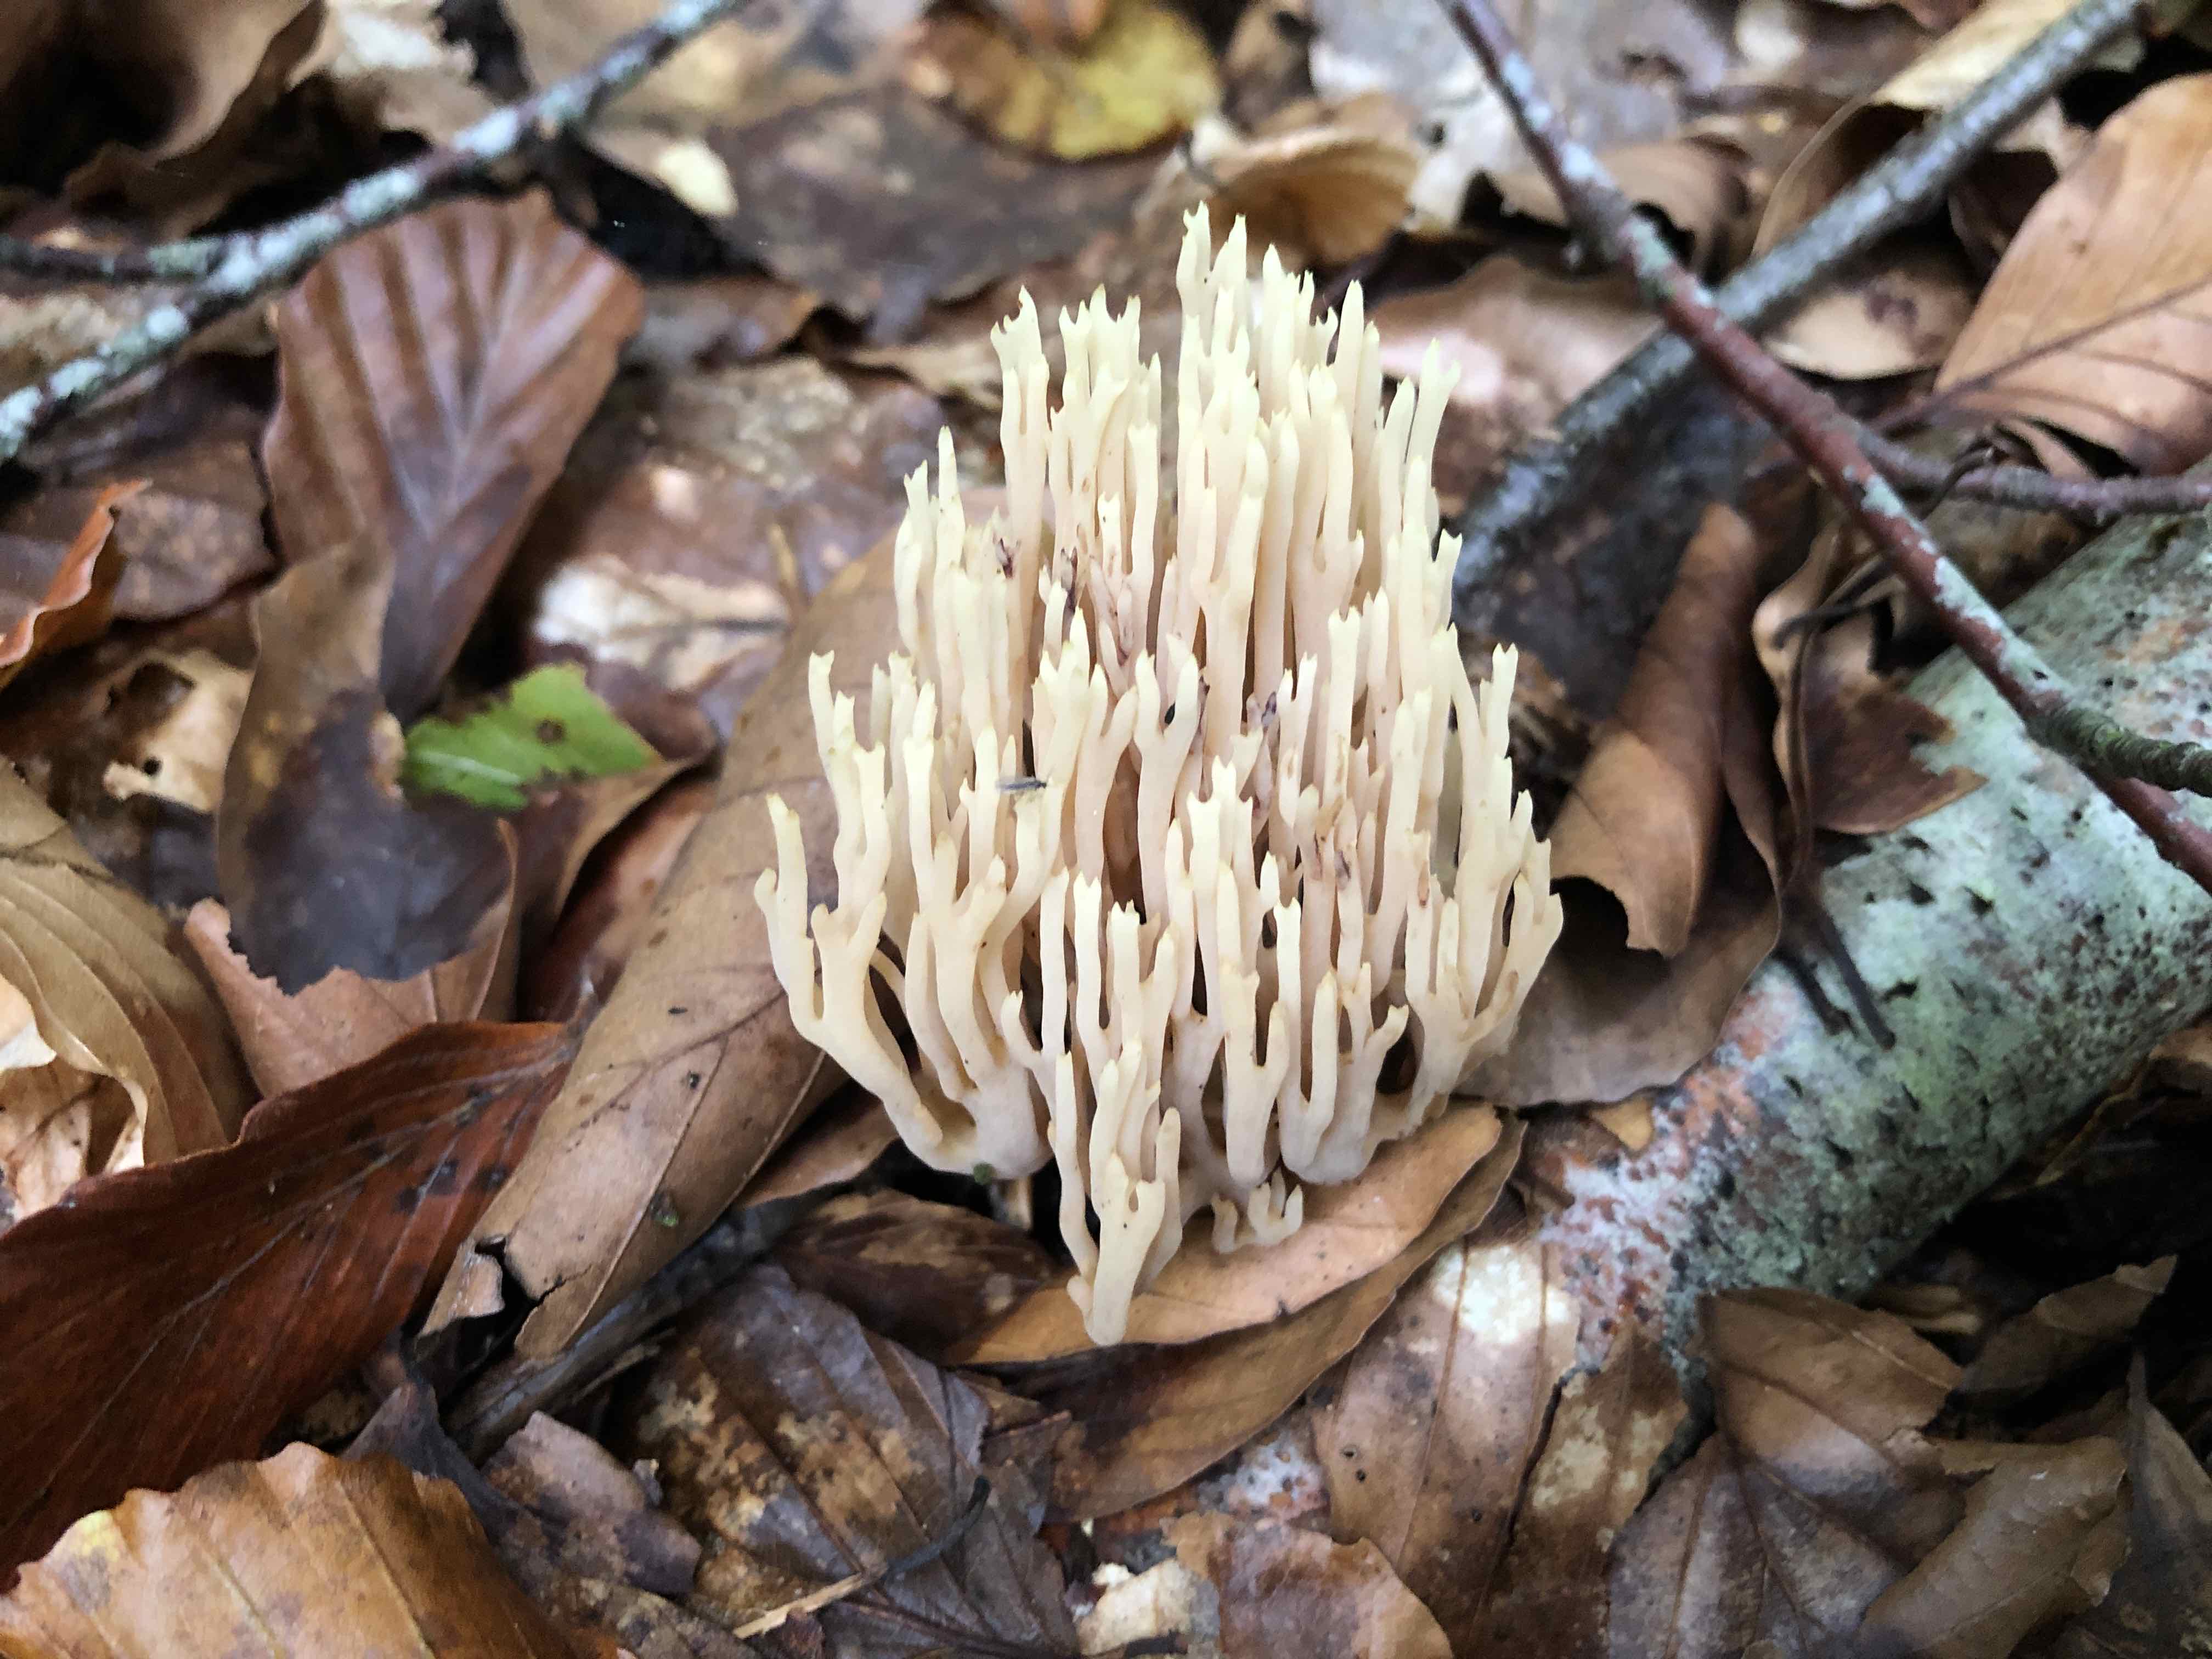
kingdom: Fungi
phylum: Basidiomycota
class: Agaricomycetes
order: Gomphales
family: Gomphaceae
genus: Ramaria
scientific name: Ramaria stricta
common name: rank koralsvamp
